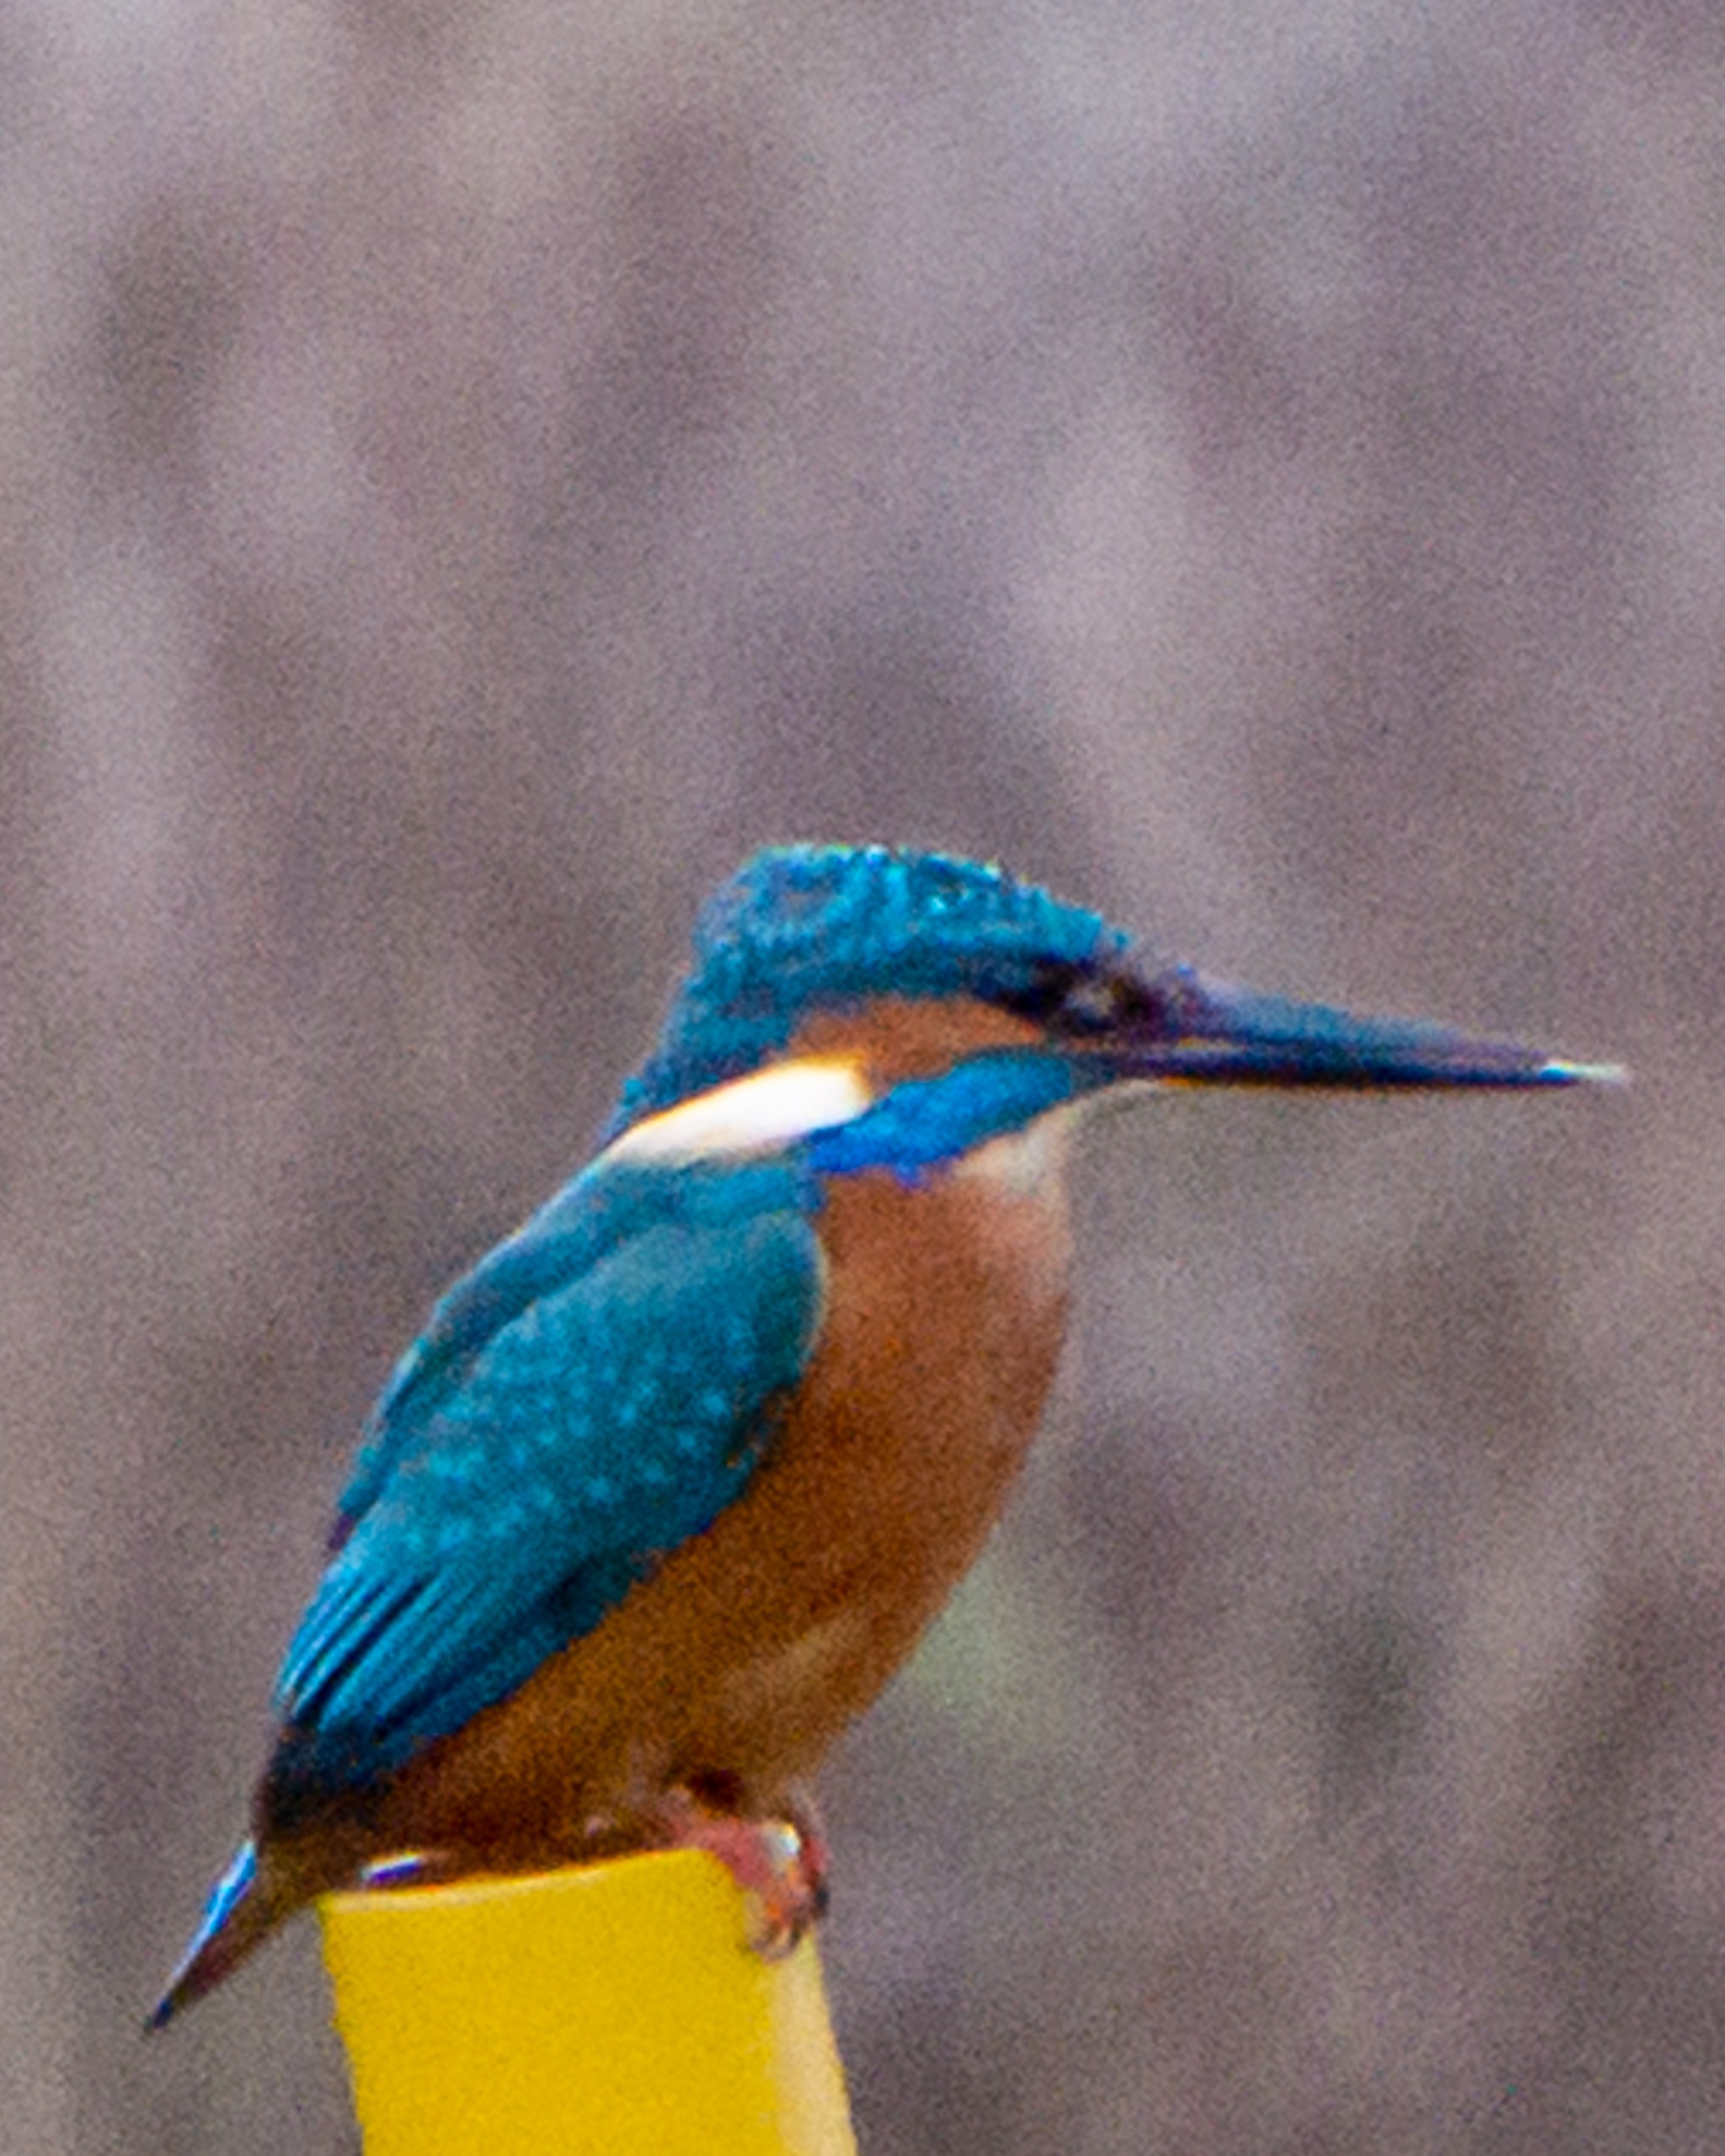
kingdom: Animalia
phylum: Chordata
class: Aves
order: Coraciiformes
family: Alcedinidae
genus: Alcedo
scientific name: Alcedo atthis
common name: Isfugl
